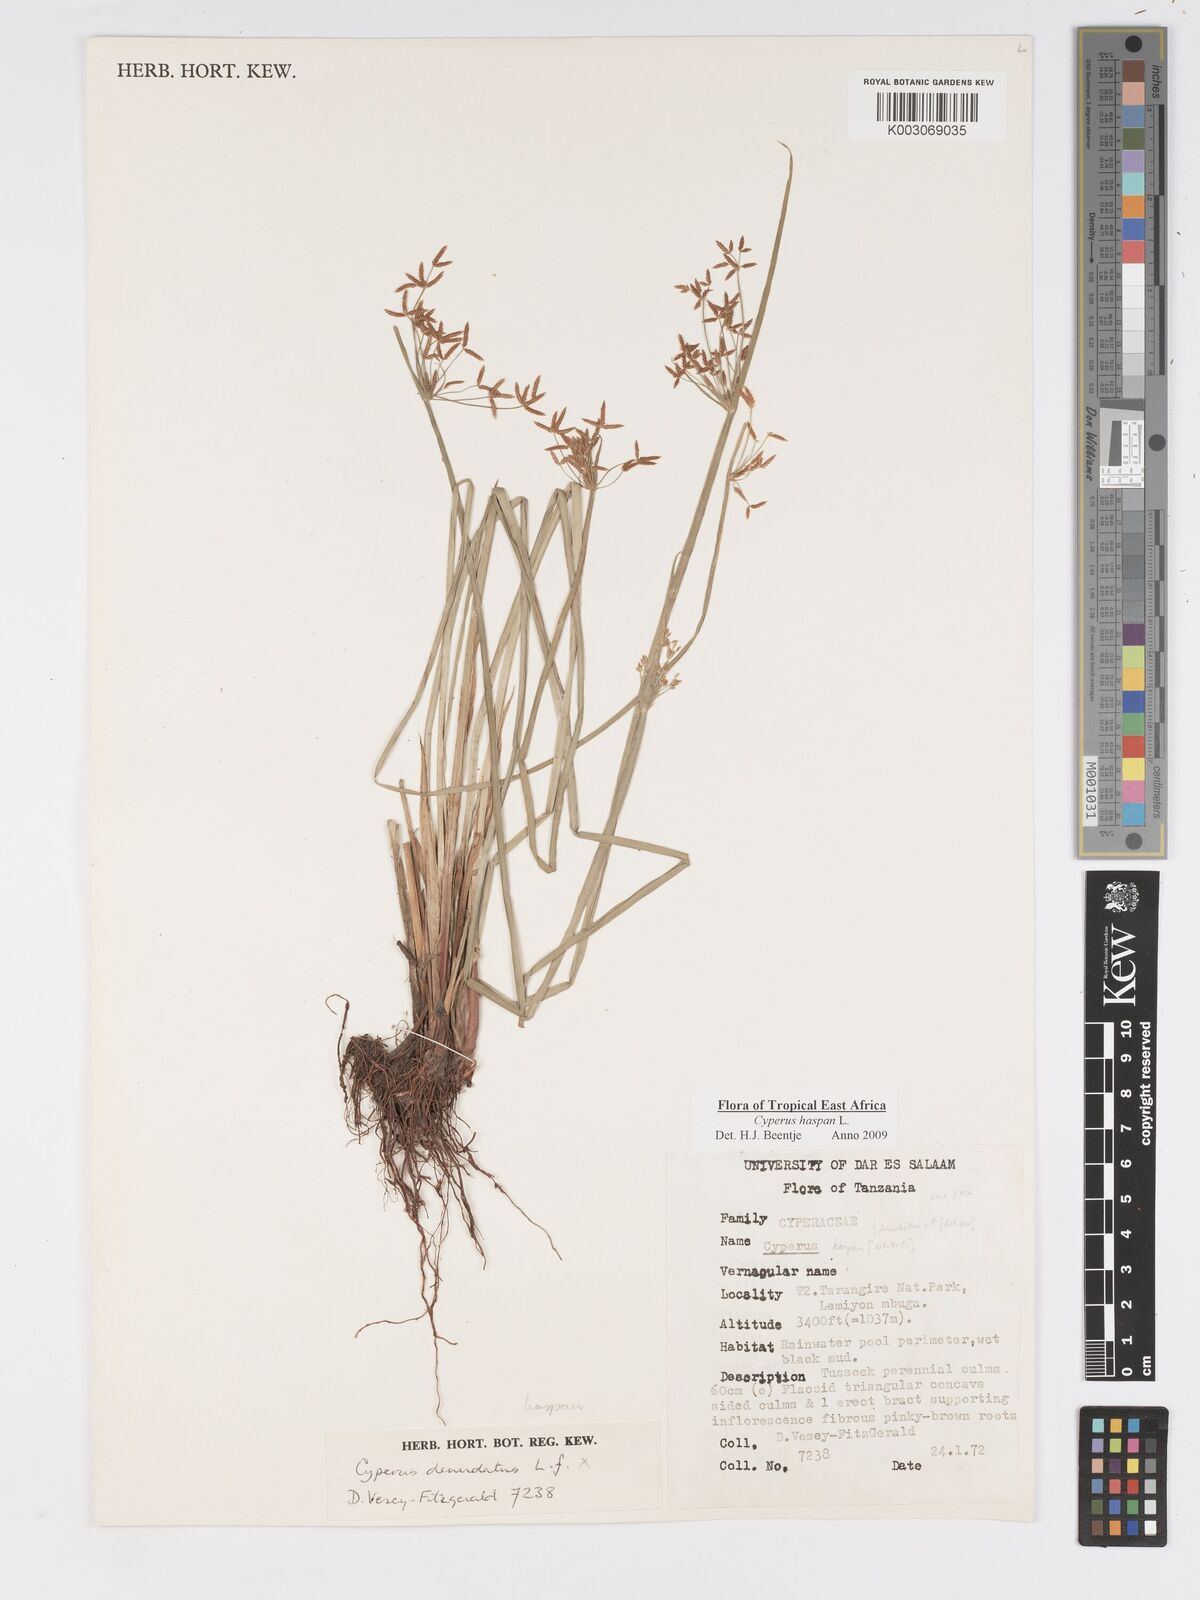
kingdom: Plantae
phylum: Tracheophyta
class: Liliopsida
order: Poales
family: Cyperaceae
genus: Cyperus
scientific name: Cyperus haspan
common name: Haspan flatsedge
